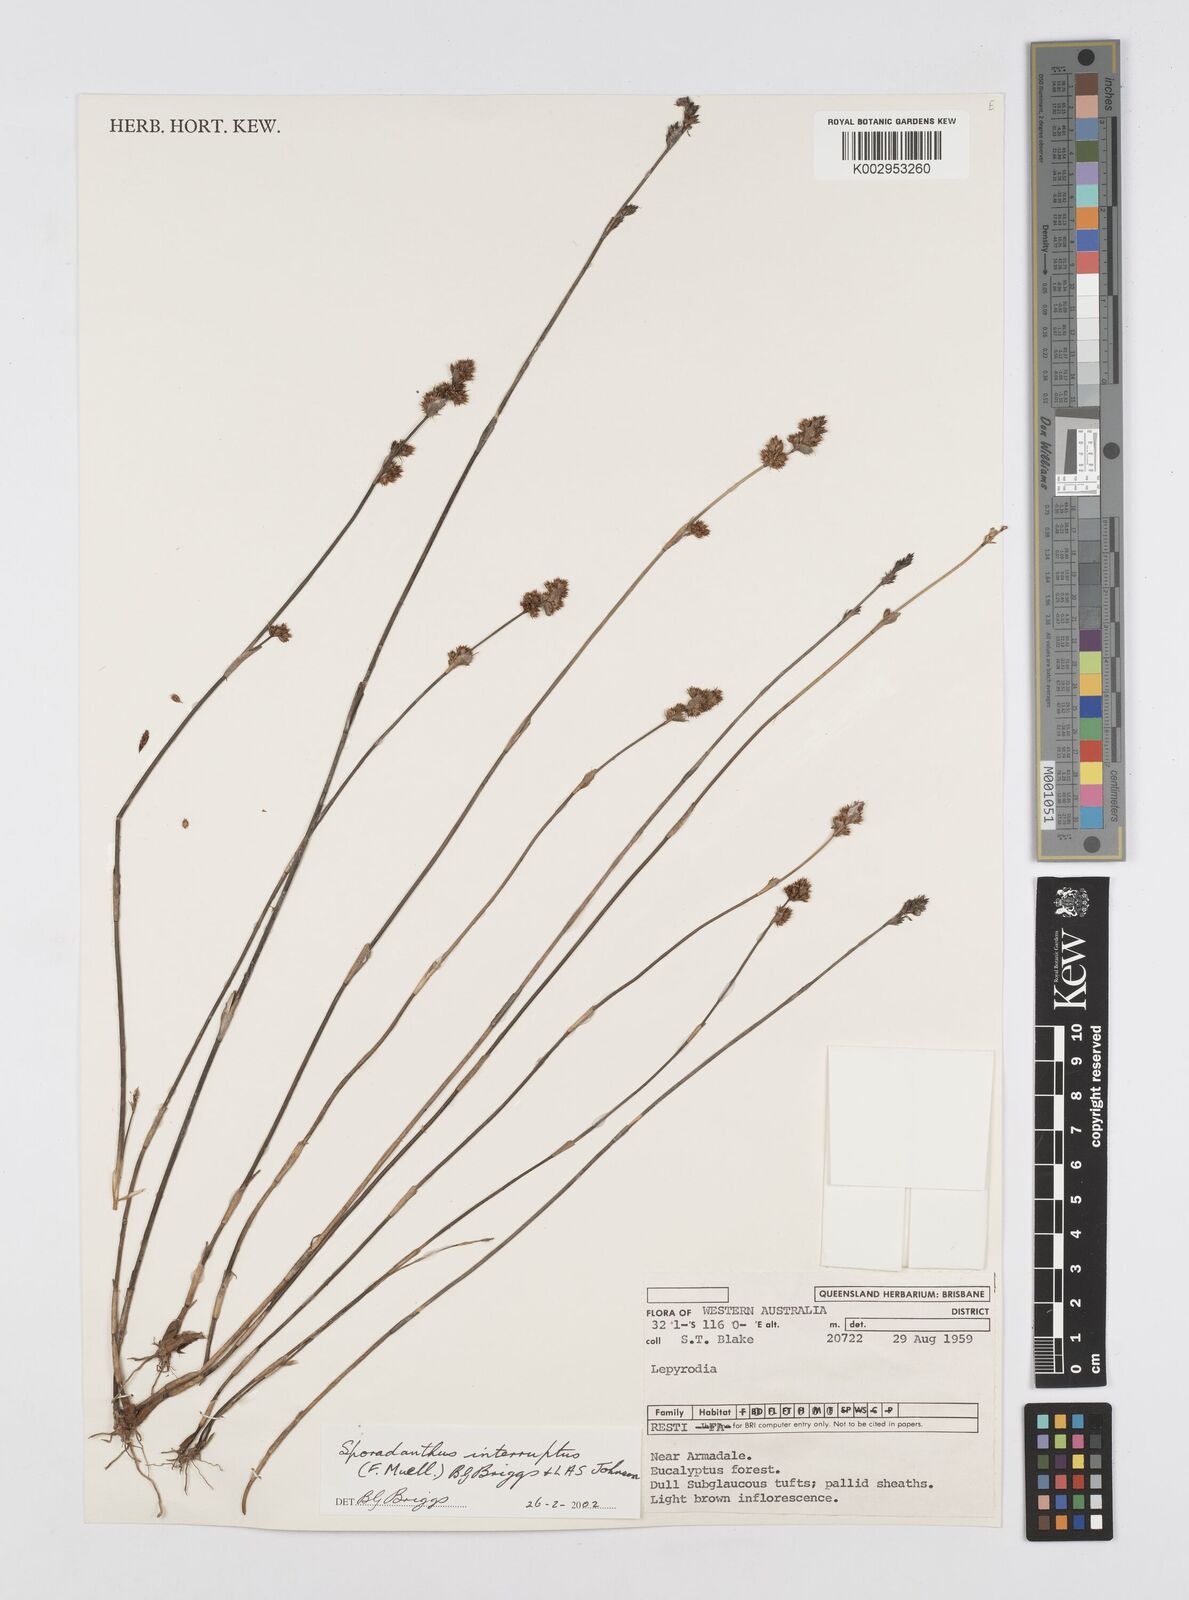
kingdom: Plantae
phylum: Tracheophyta
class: Liliopsida
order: Poales
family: Restionaceae
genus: Sporadanthus
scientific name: Sporadanthus interruptus
